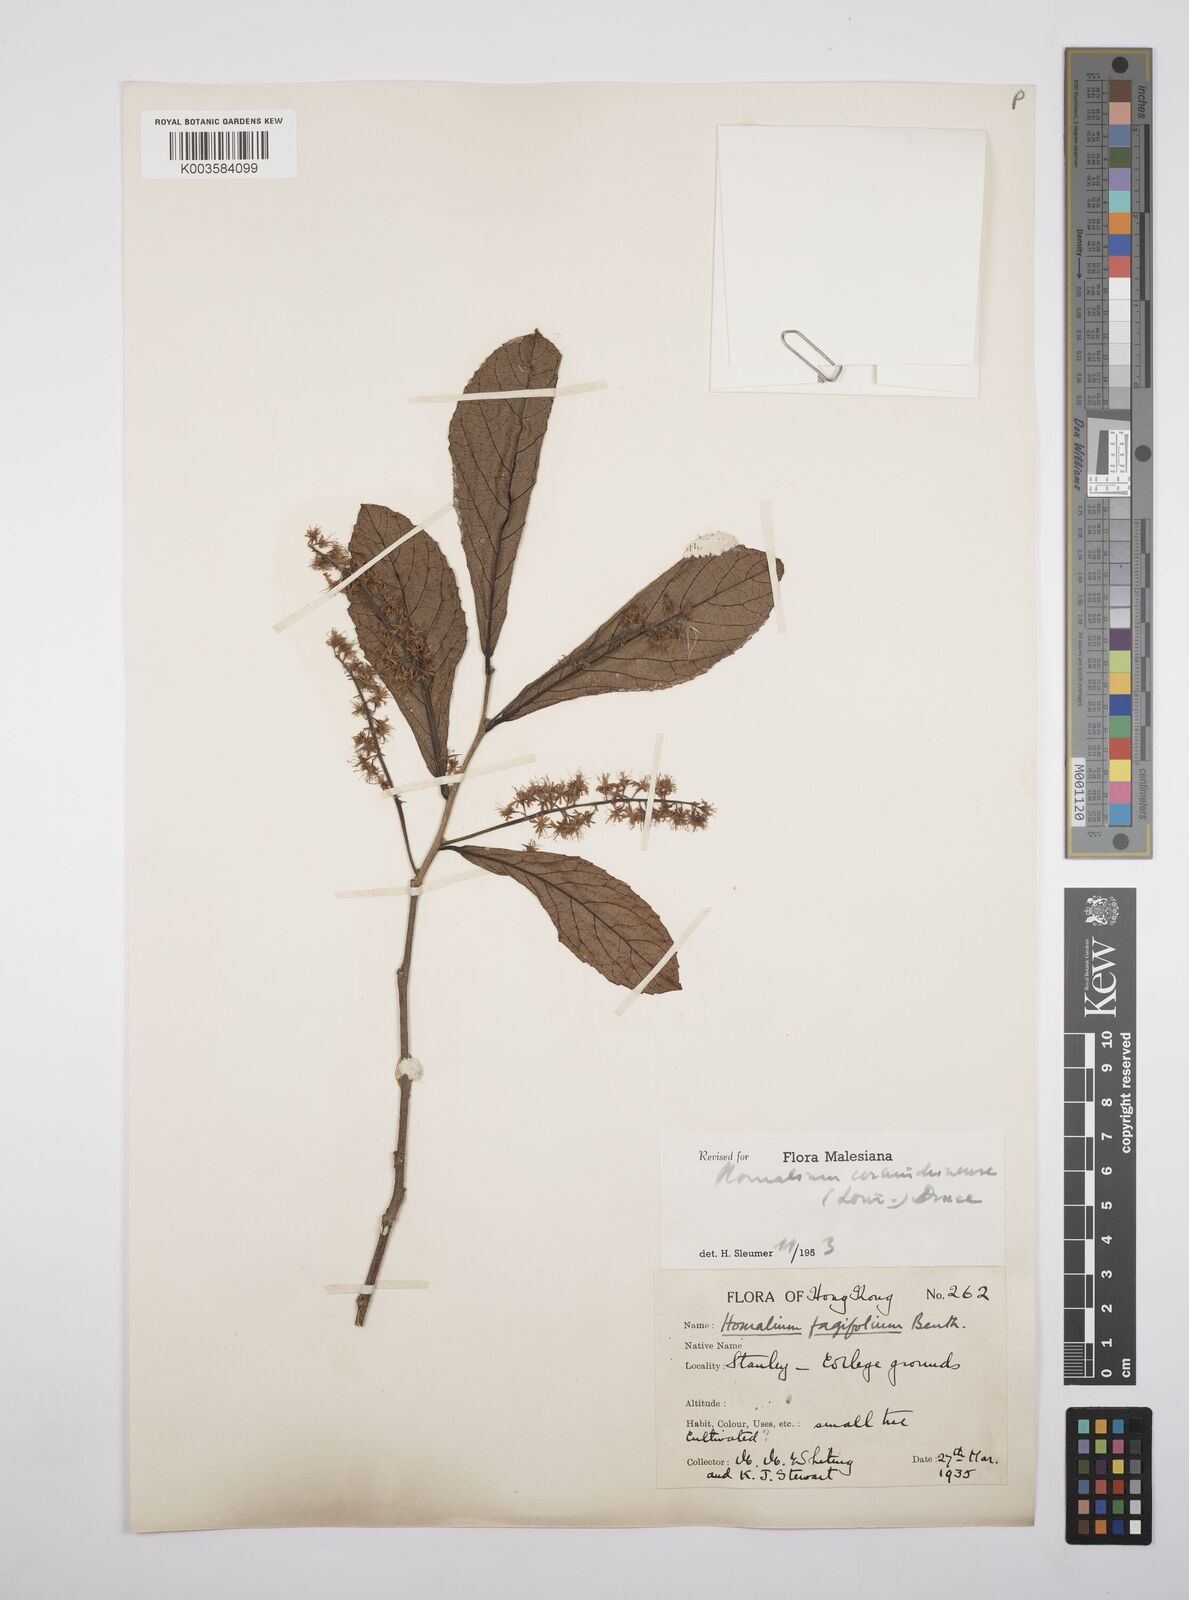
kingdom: Plantae
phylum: Tracheophyta
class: Magnoliopsida
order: Malpighiales
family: Salicaceae
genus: Homalium
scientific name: Homalium cochinchinensis
